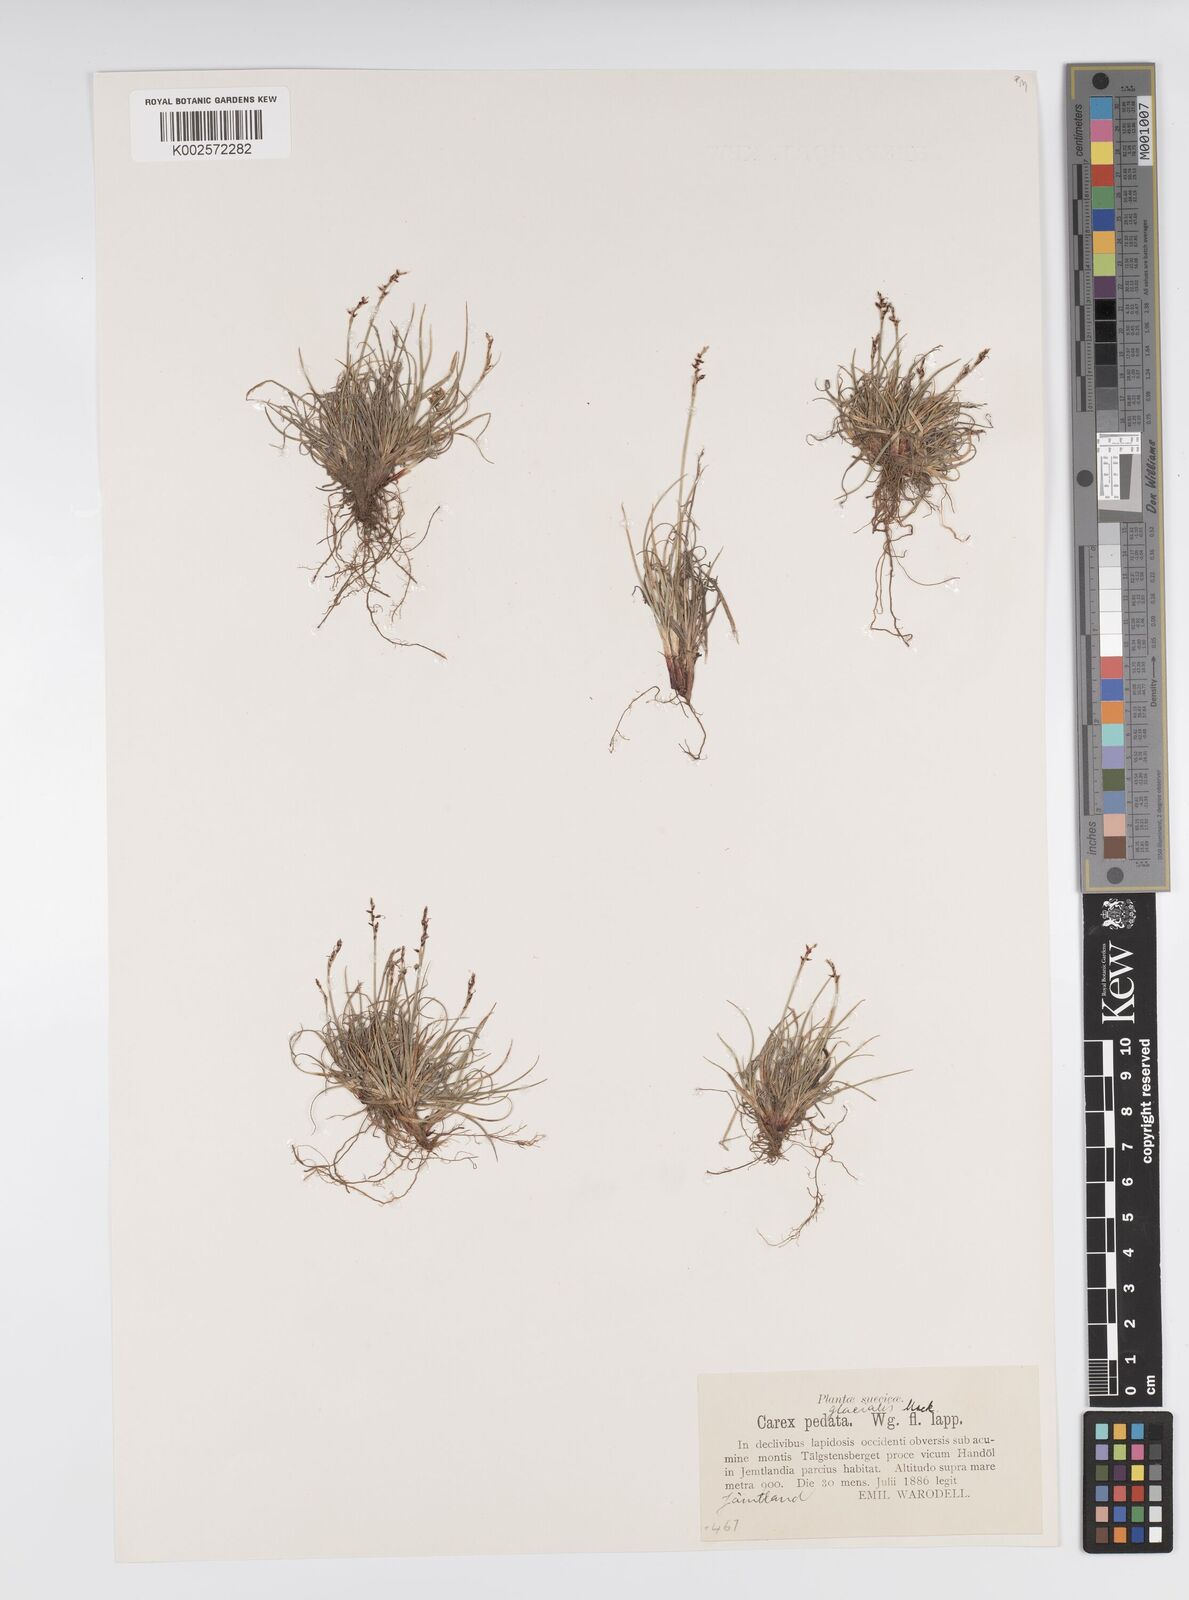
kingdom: Plantae
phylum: Tracheophyta
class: Liliopsida
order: Poales
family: Cyperaceae
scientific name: Cyperaceae
